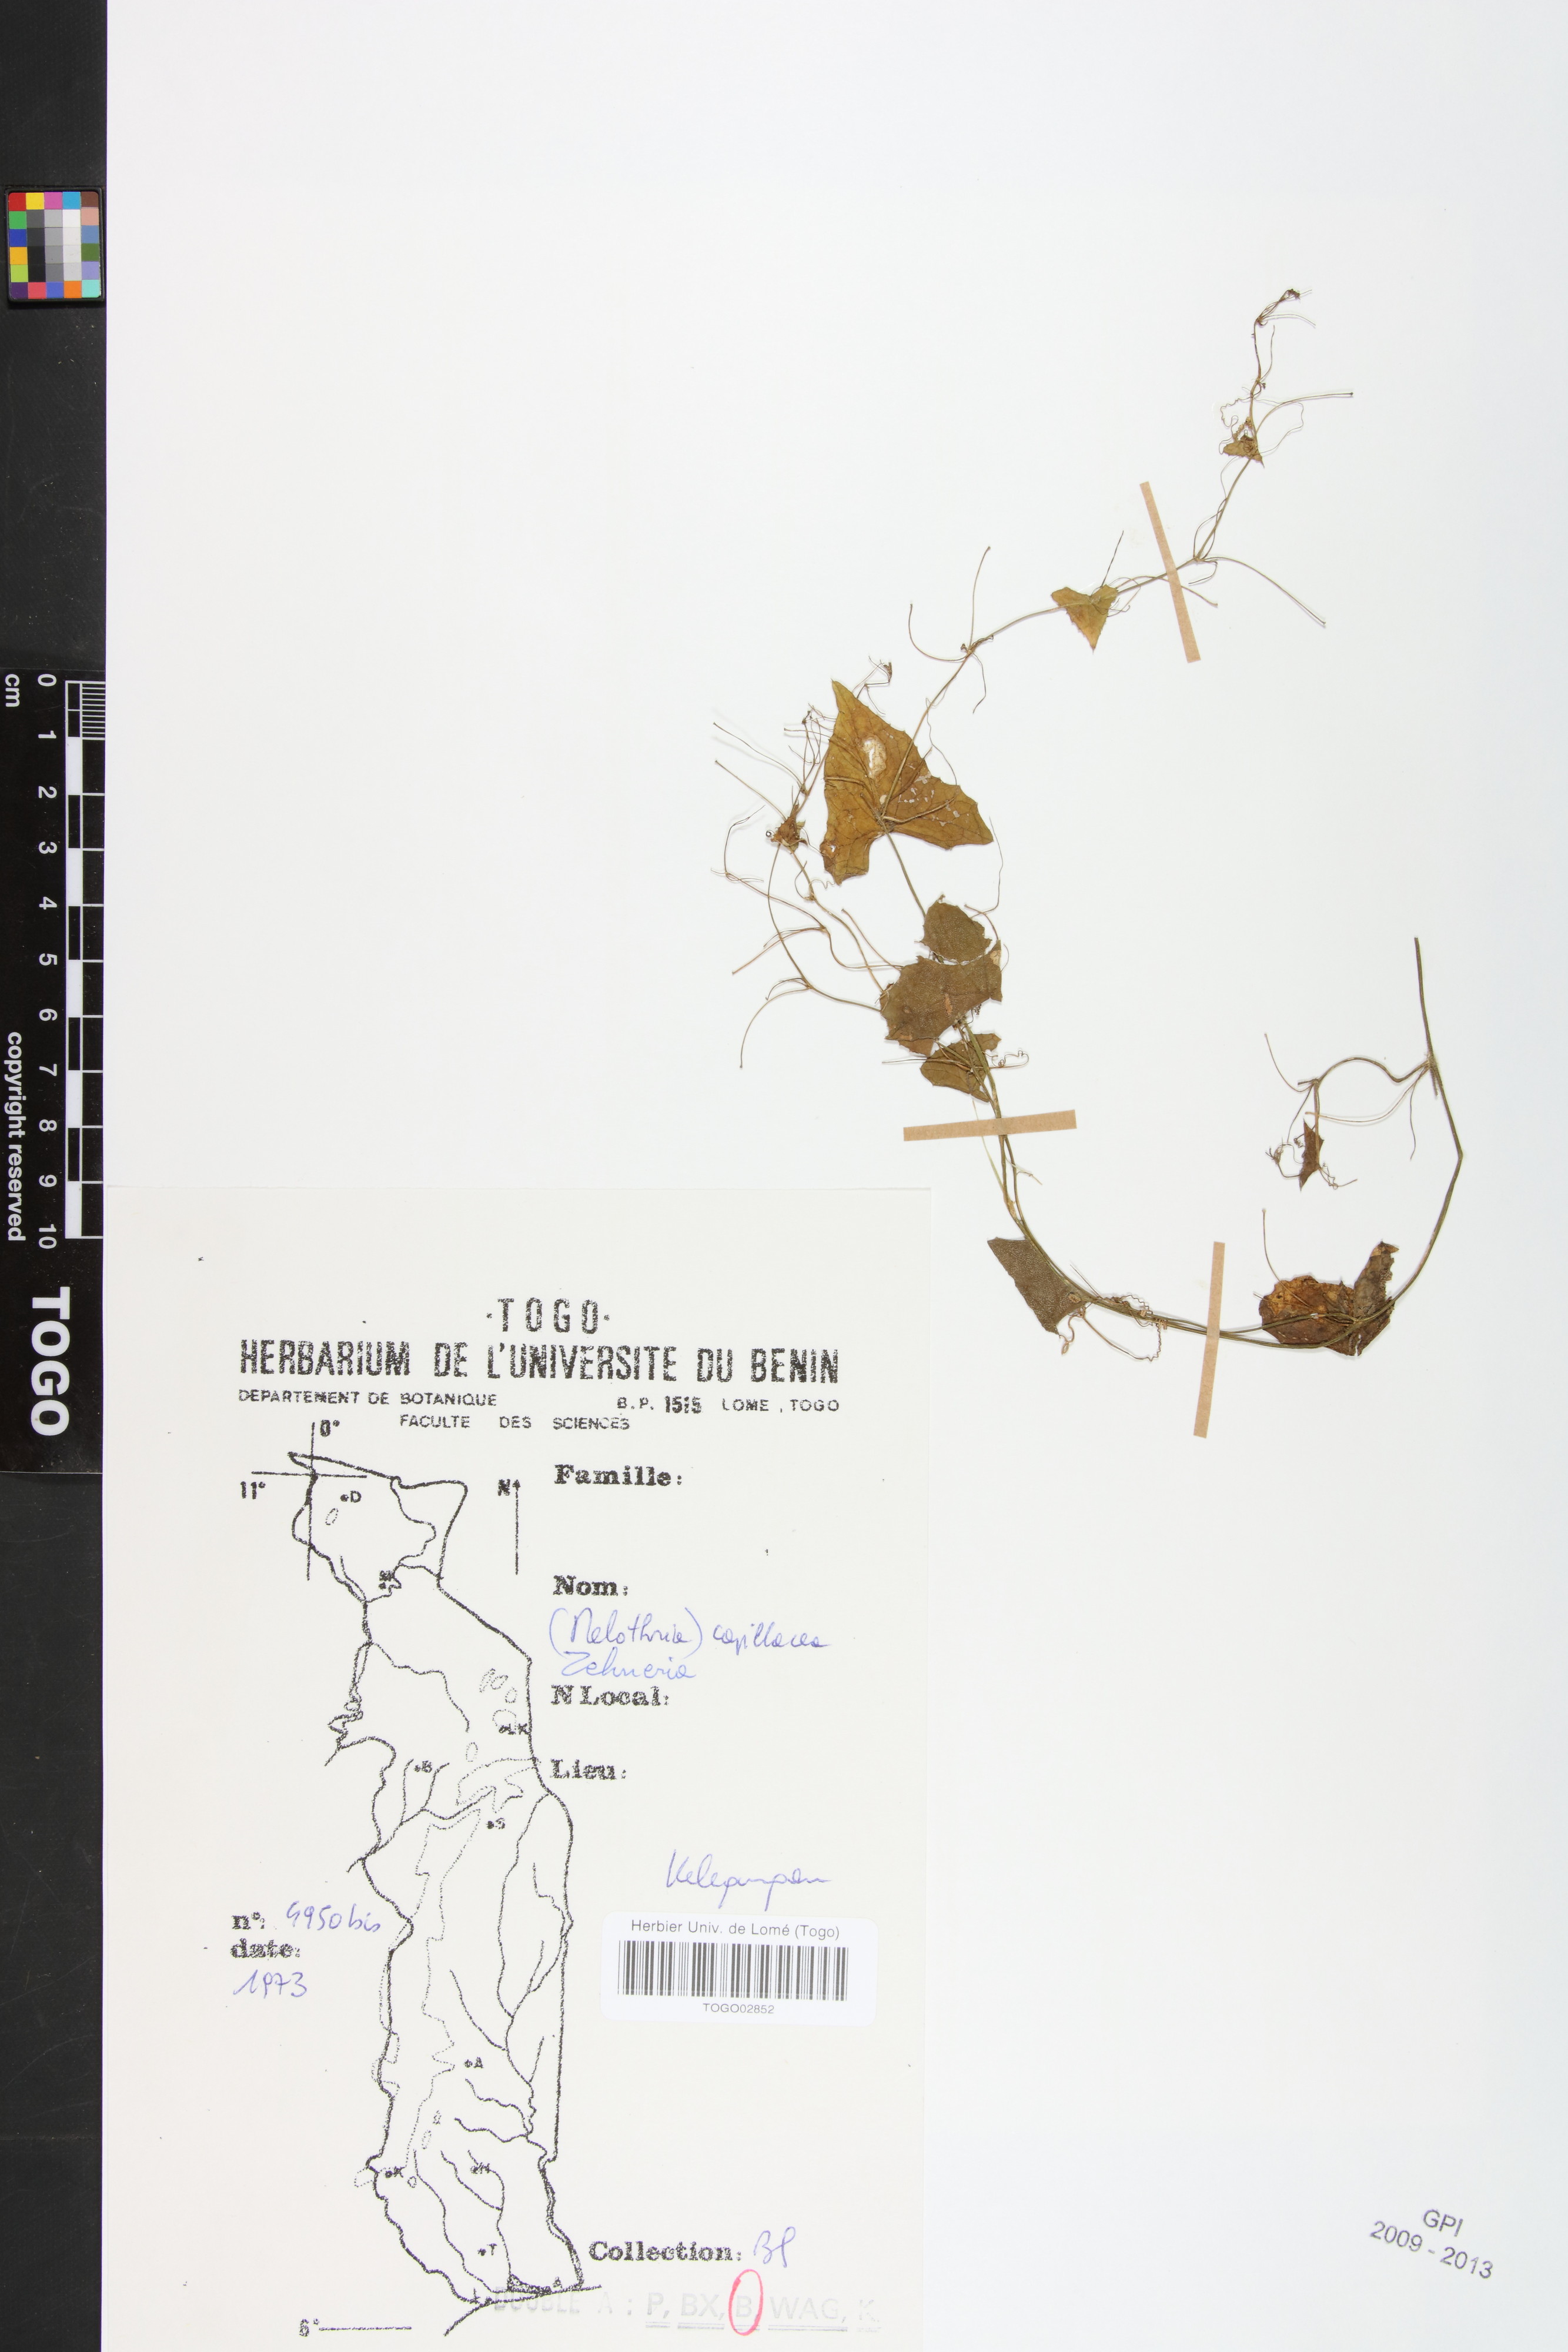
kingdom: Plantae
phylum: Tracheophyta
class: Magnoliopsida
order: Cucurbitales
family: Cucurbitaceae
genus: Zehneria
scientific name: Zehneria capillacea
